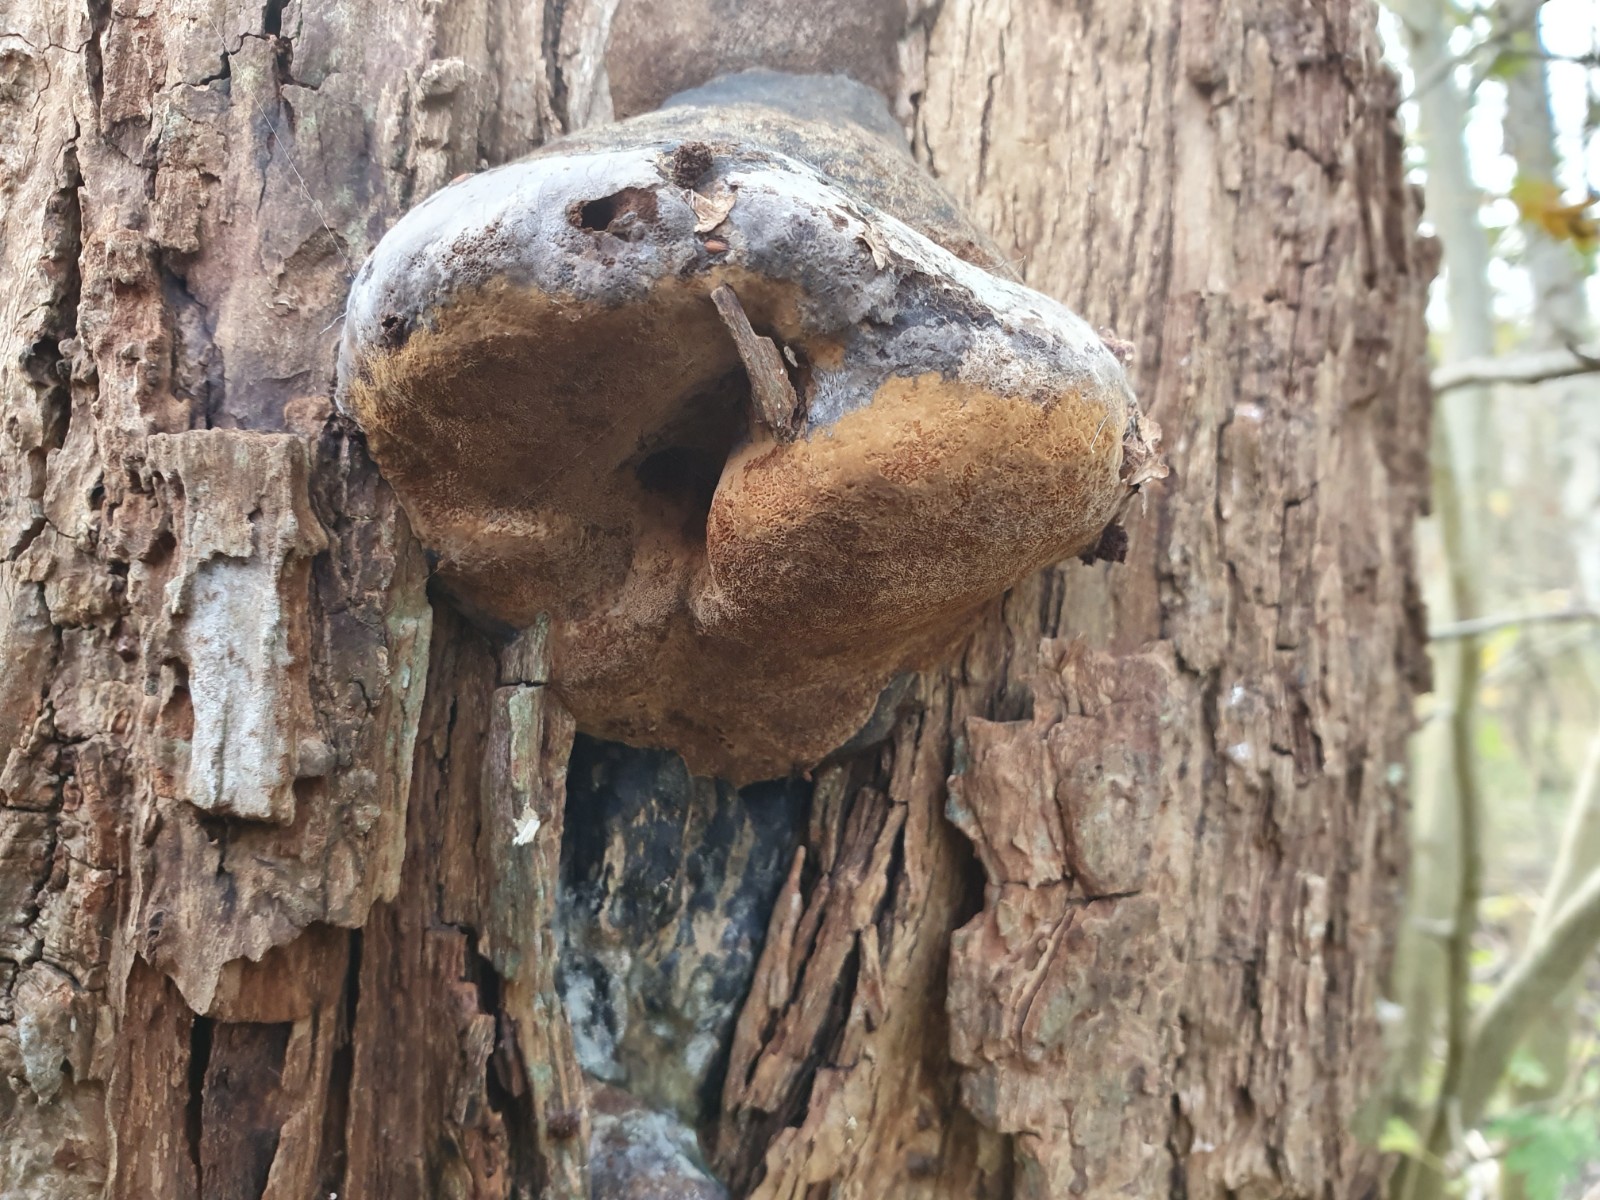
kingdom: Fungi
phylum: Basidiomycota
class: Agaricomycetes
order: Hymenochaetales
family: Hymenochaetaceae
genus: Phellinopsis
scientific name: Phellinopsis conchata
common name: pile-ildporesvamp
